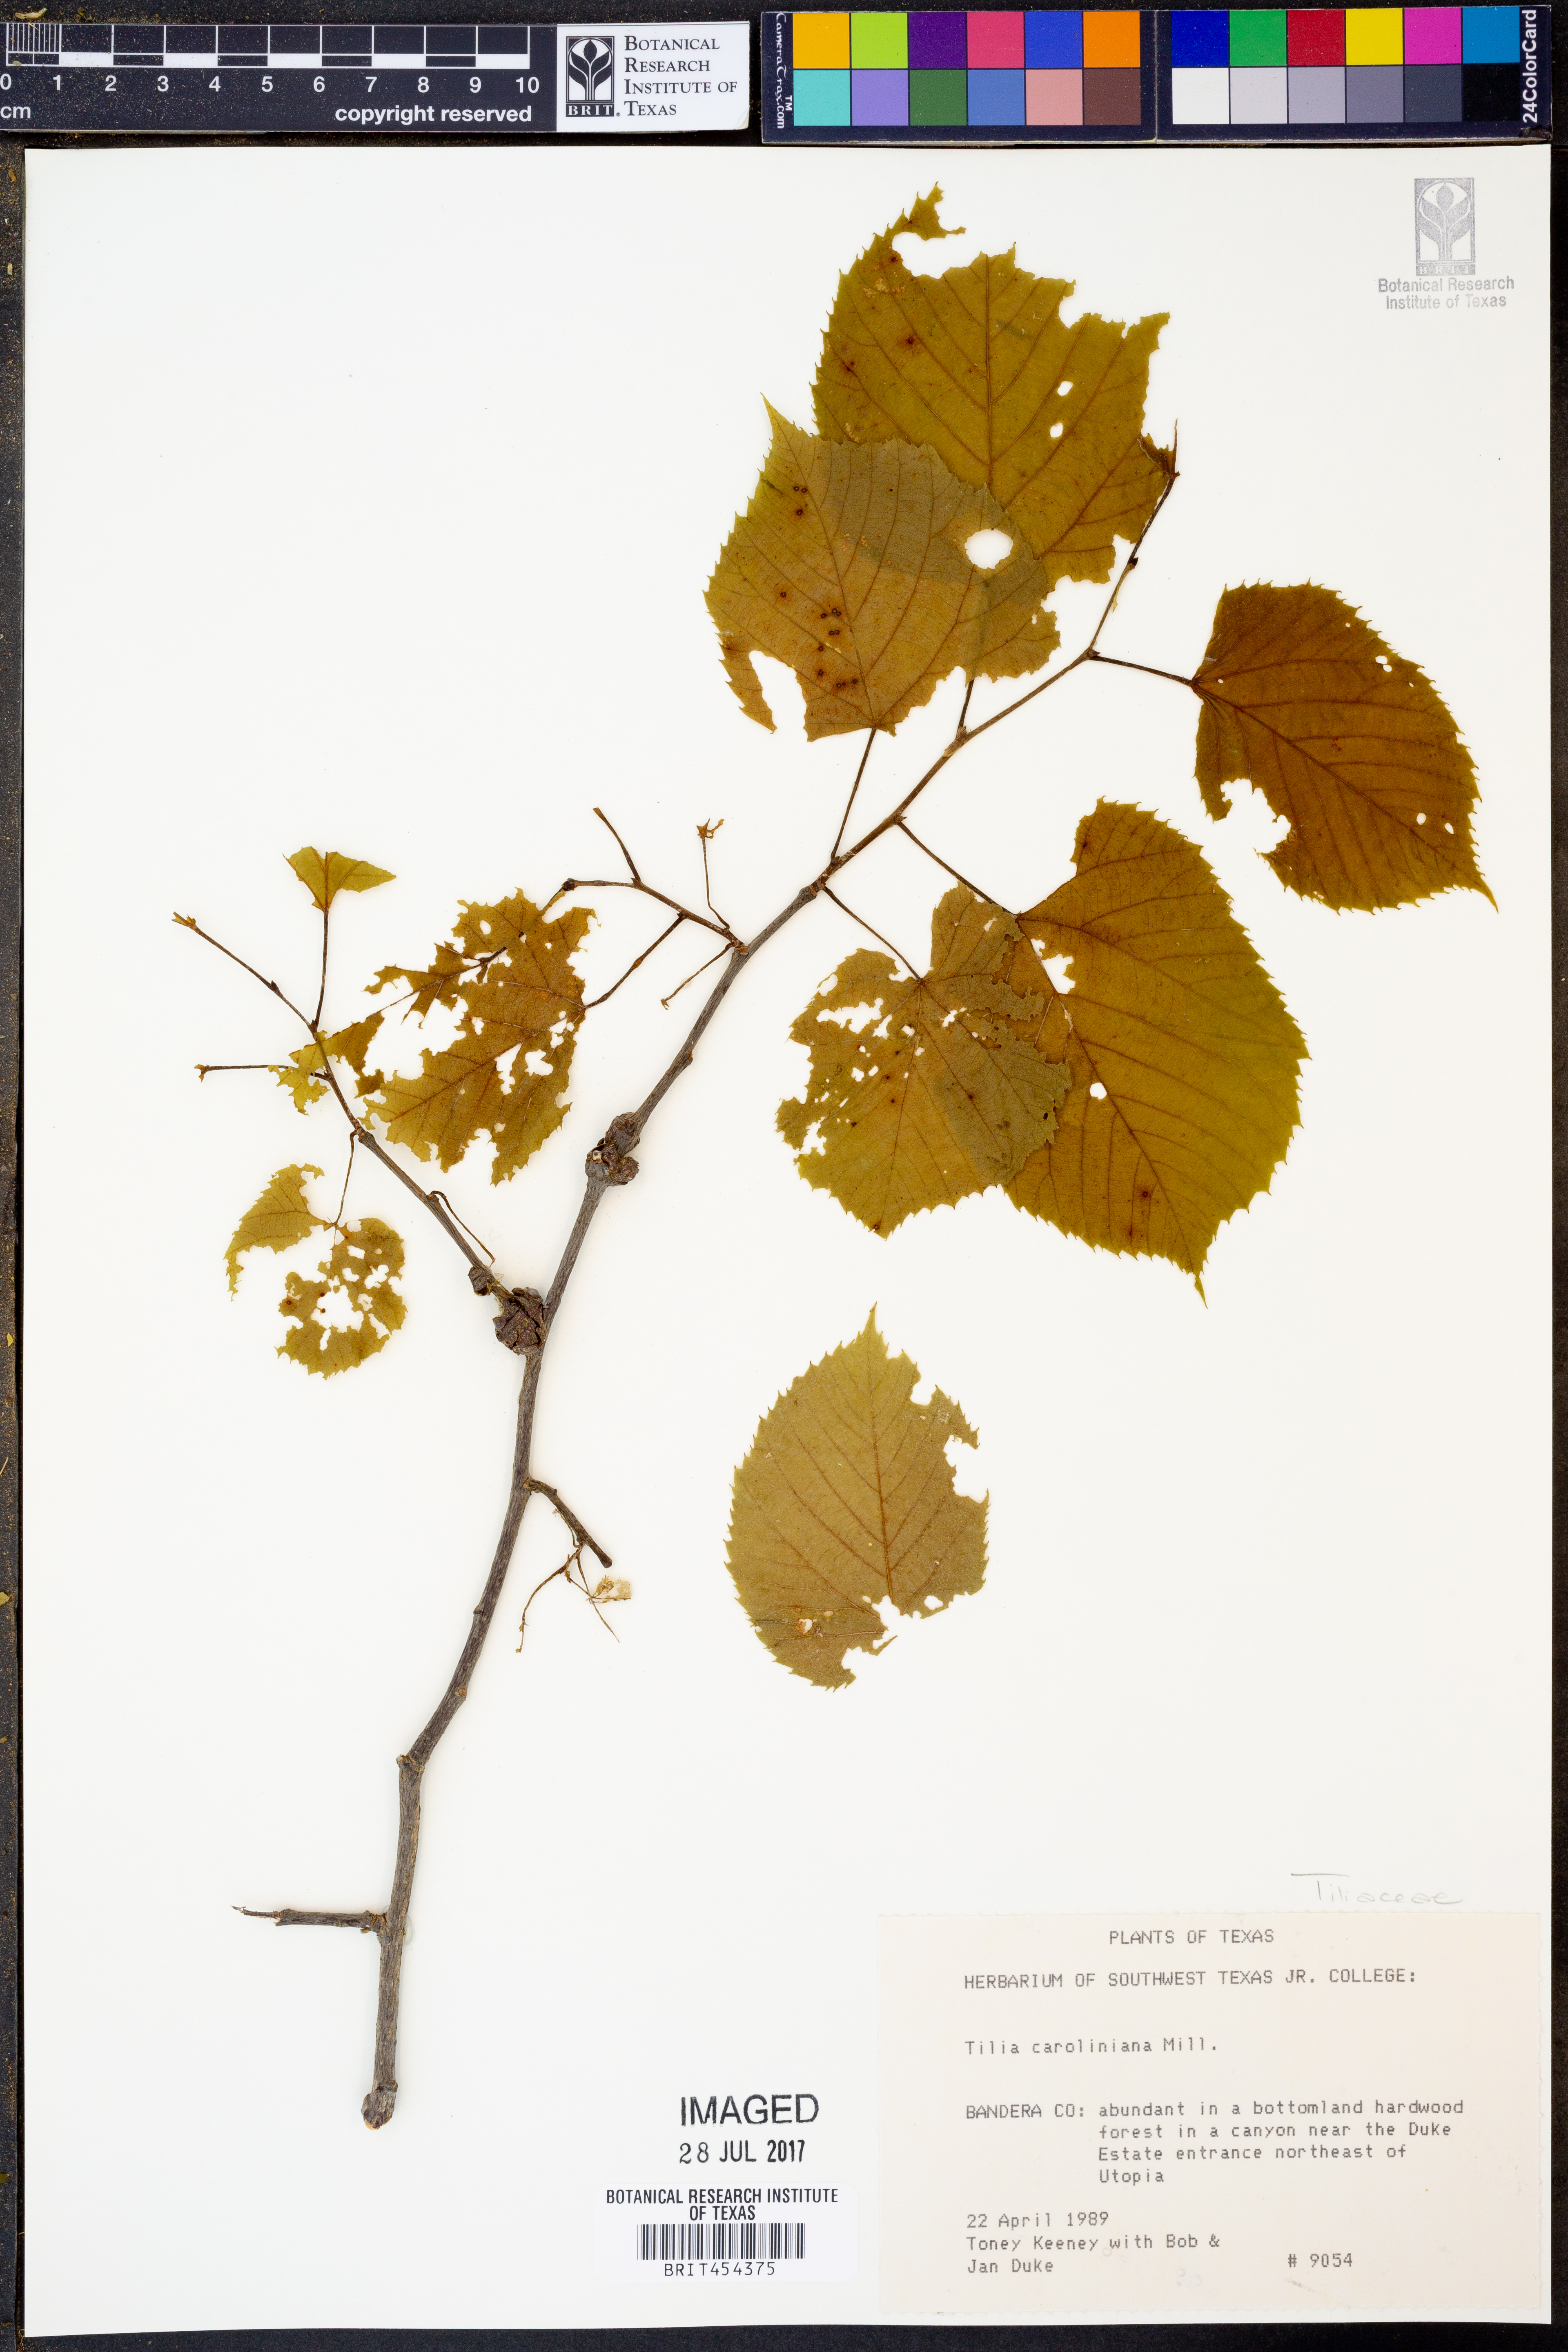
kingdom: Plantae
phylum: Tracheophyta
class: Magnoliopsida
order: Malvales
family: Malvaceae
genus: Tilia
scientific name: Tilia americana
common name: Basswood
